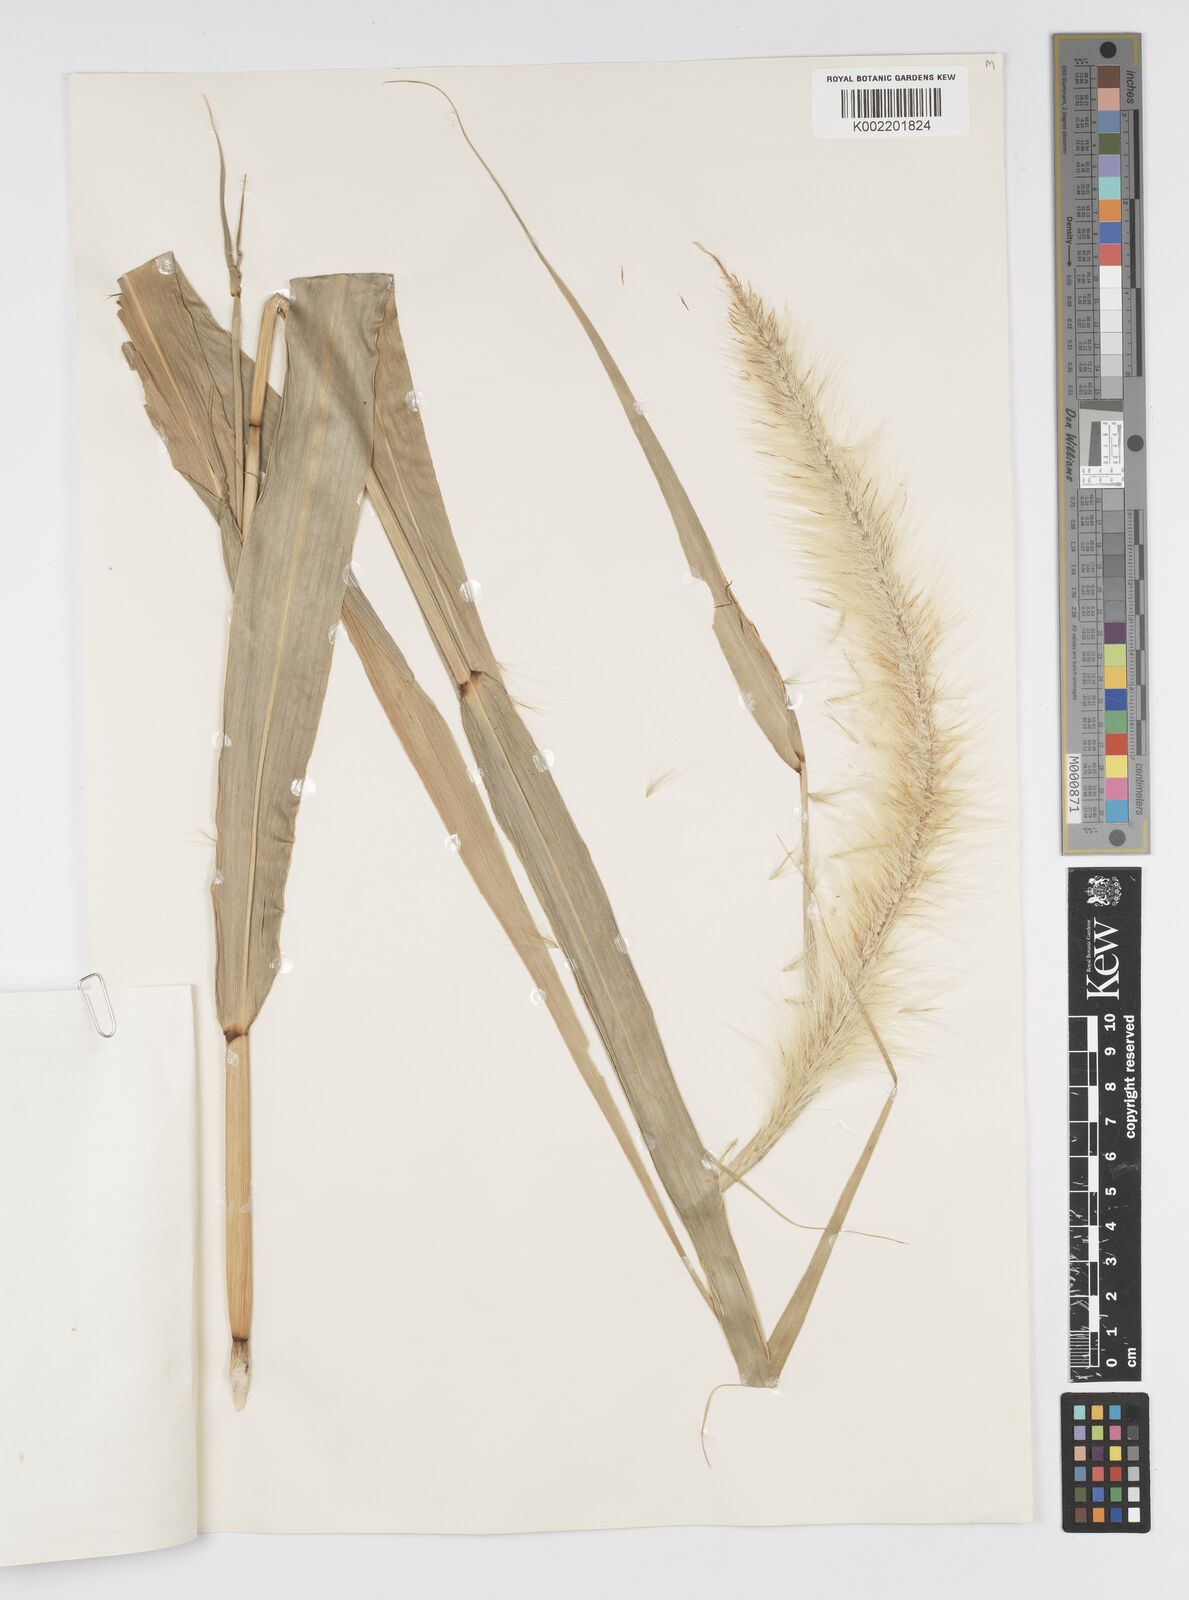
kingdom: Plantae
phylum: Tracheophyta
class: Liliopsida
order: Poales
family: Poaceae
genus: Cenchrus
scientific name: Cenchrus purpureus
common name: Elephant grass
